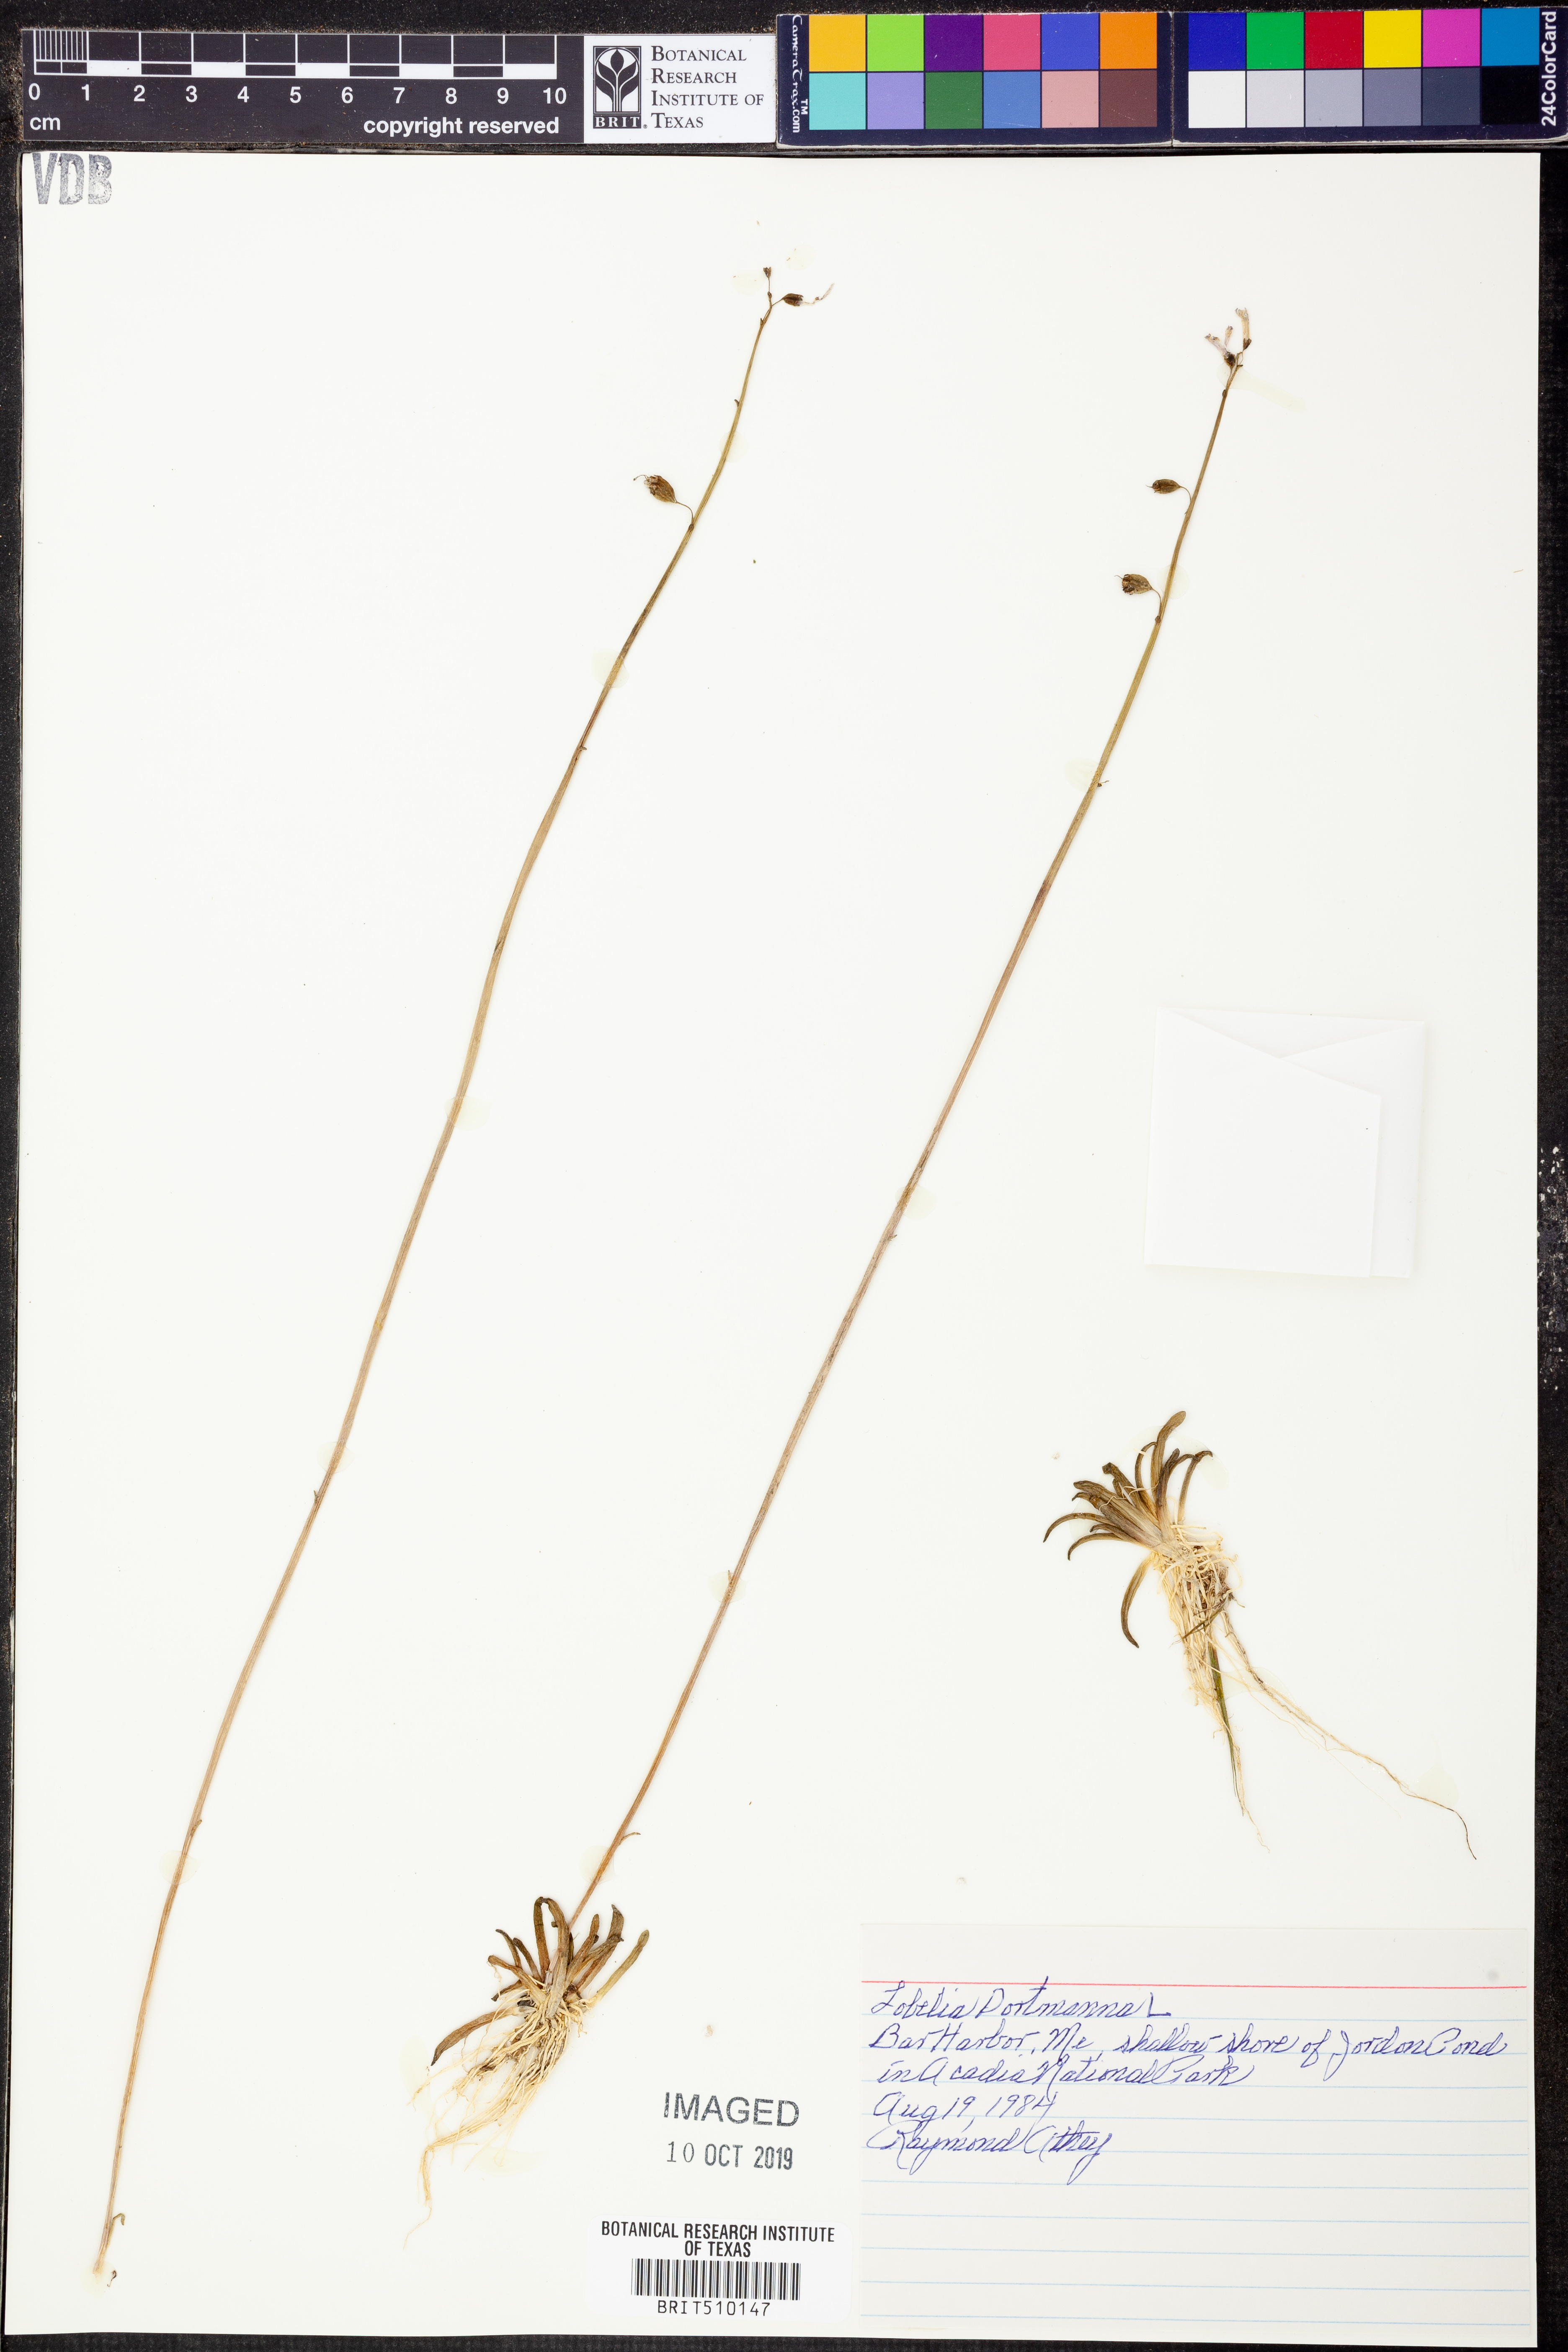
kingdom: Plantae
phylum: Tracheophyta
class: Magnoliopsida
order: Asterales
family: Campanulaceae
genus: Lobelia
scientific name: Lobelia dortmanna
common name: Water lobelia
